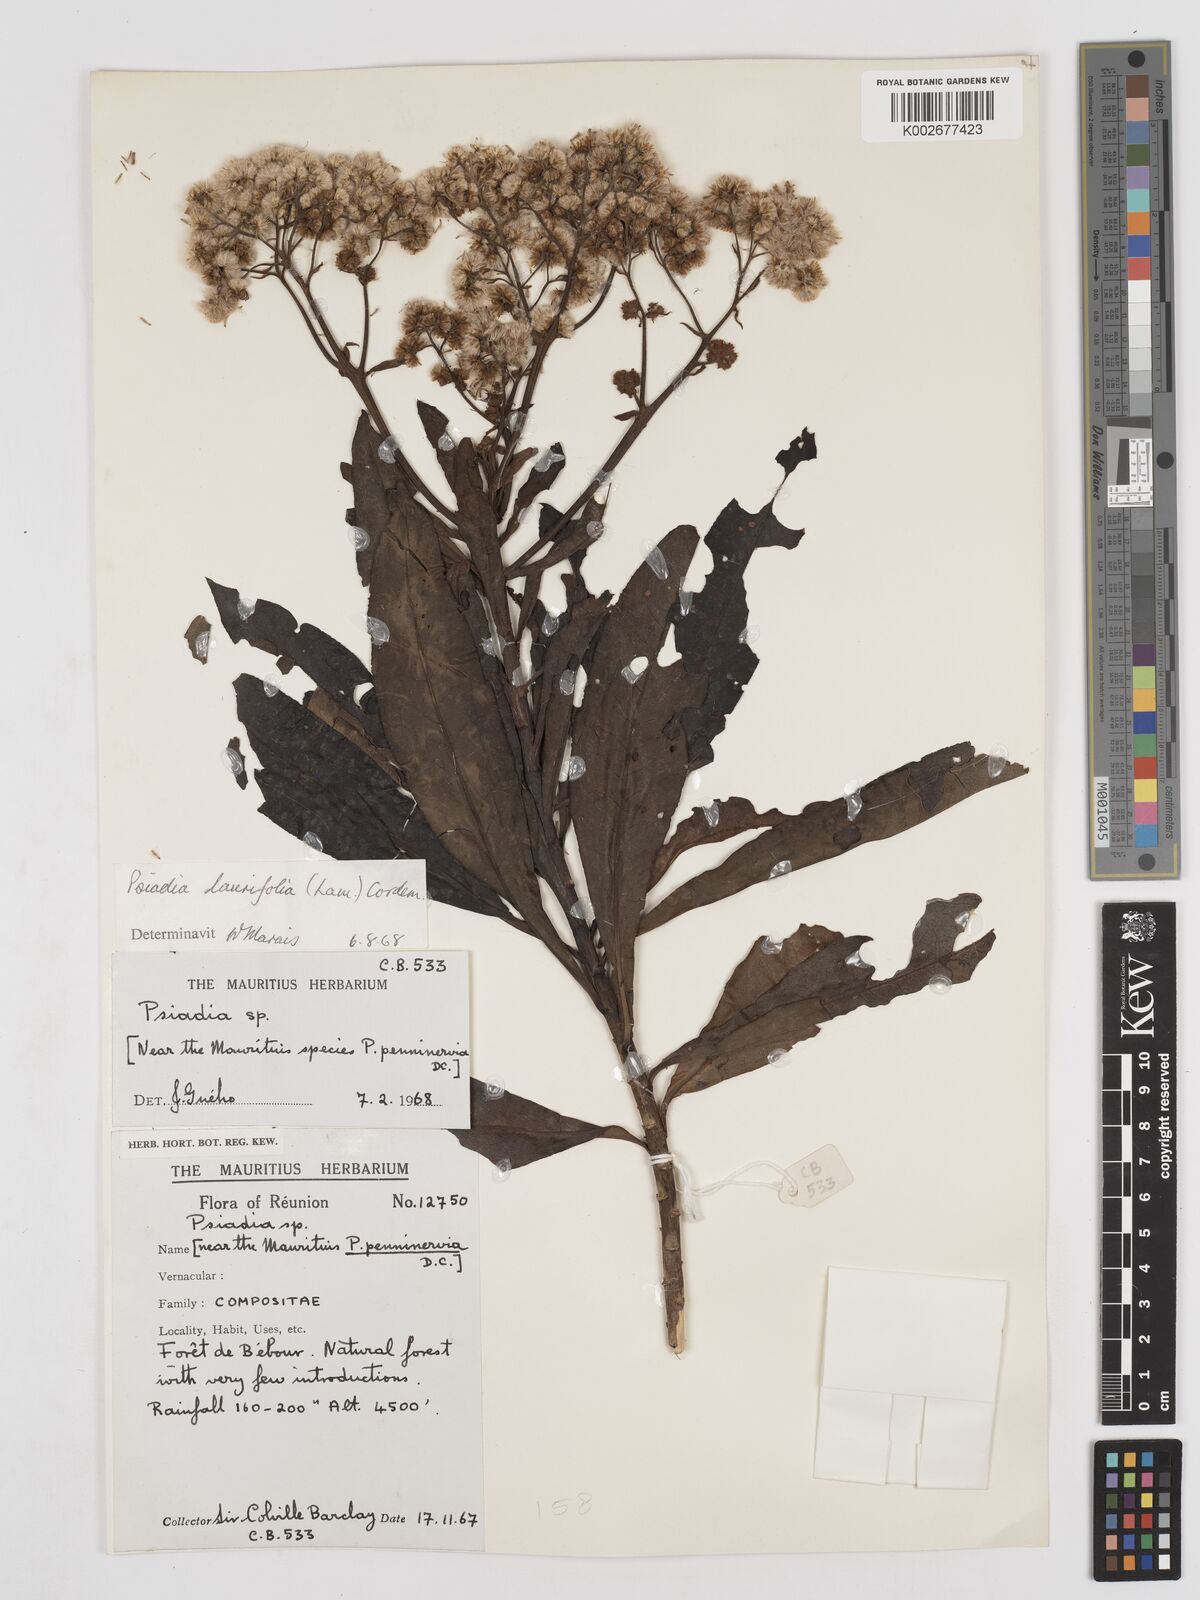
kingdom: Plantae
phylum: Tracheophyta
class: Magnoliopsida
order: Asterales
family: Asteraceae
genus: Psiadia
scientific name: Psiadia laurifolia
